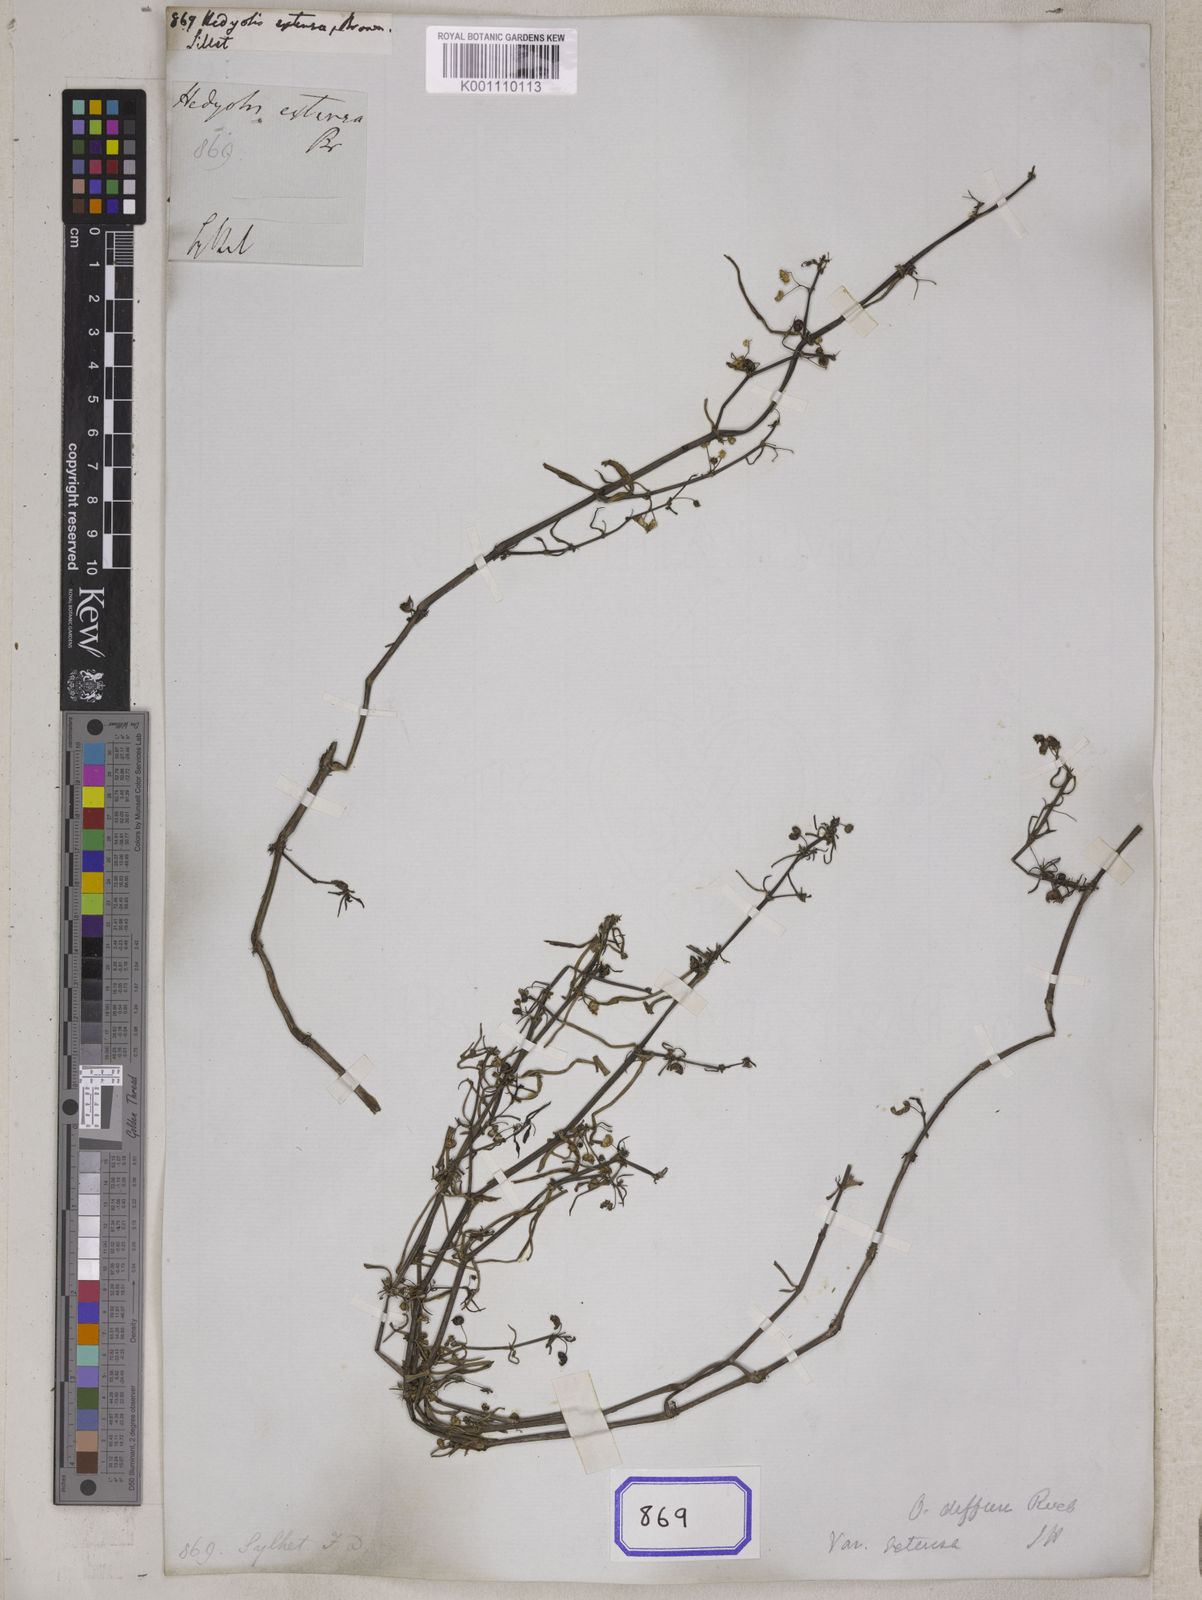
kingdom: Plantae
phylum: Tracheophyta
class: Magnoliopsida
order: Gentianales
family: Rubiaceae
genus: Hedyotis
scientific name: Hedyotis
